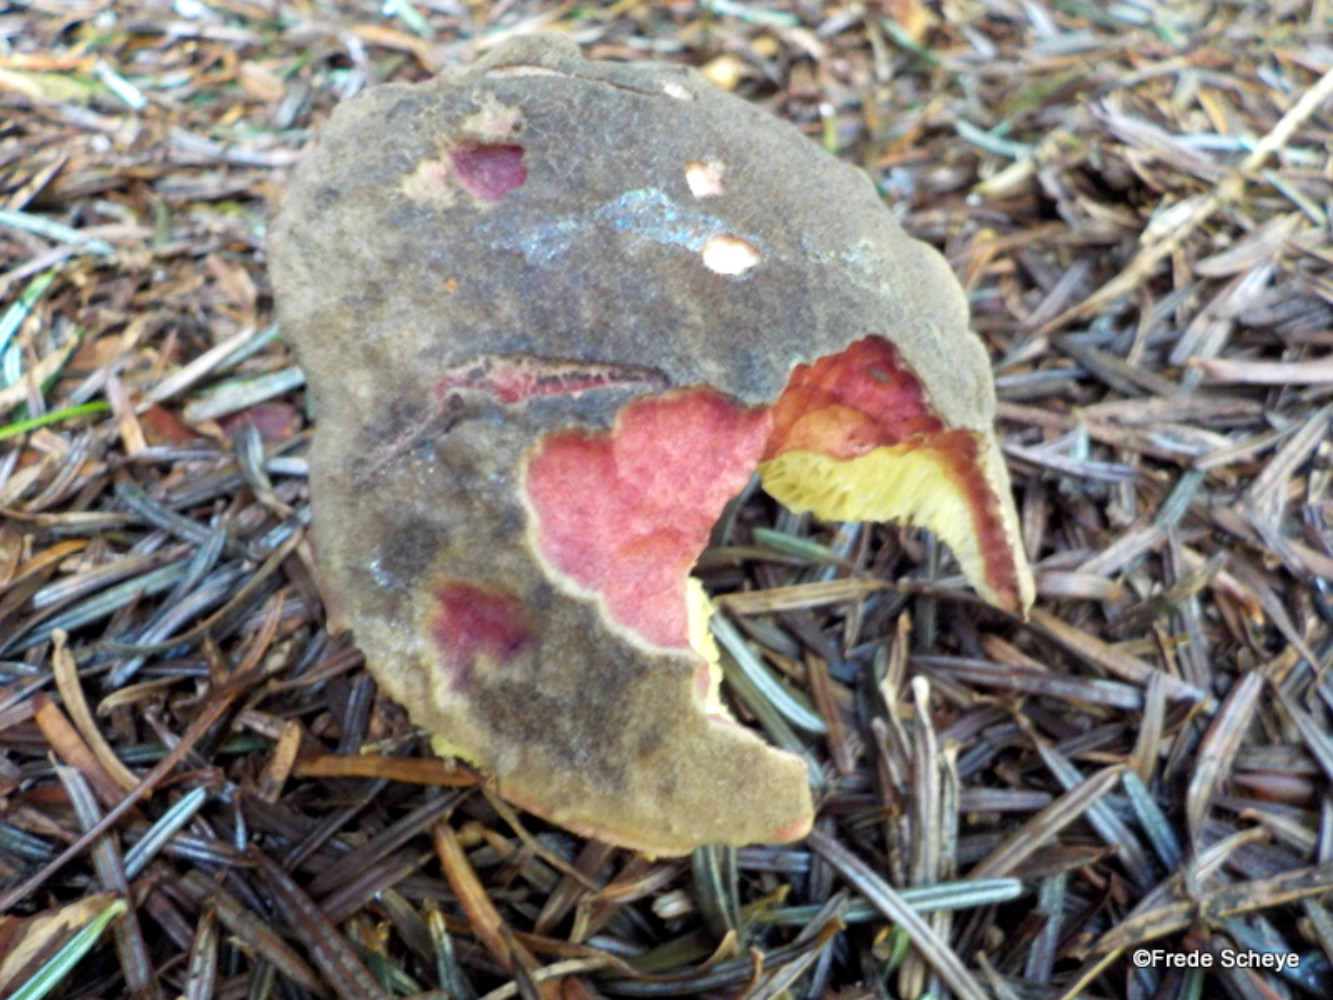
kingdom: Fungi
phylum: Basidiomycota
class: Agaricomycetes
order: Boletales
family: Boletaceae
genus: Xerocomellus
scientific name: Xerocomellus chrysenteron
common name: rødsprukken rørhat
